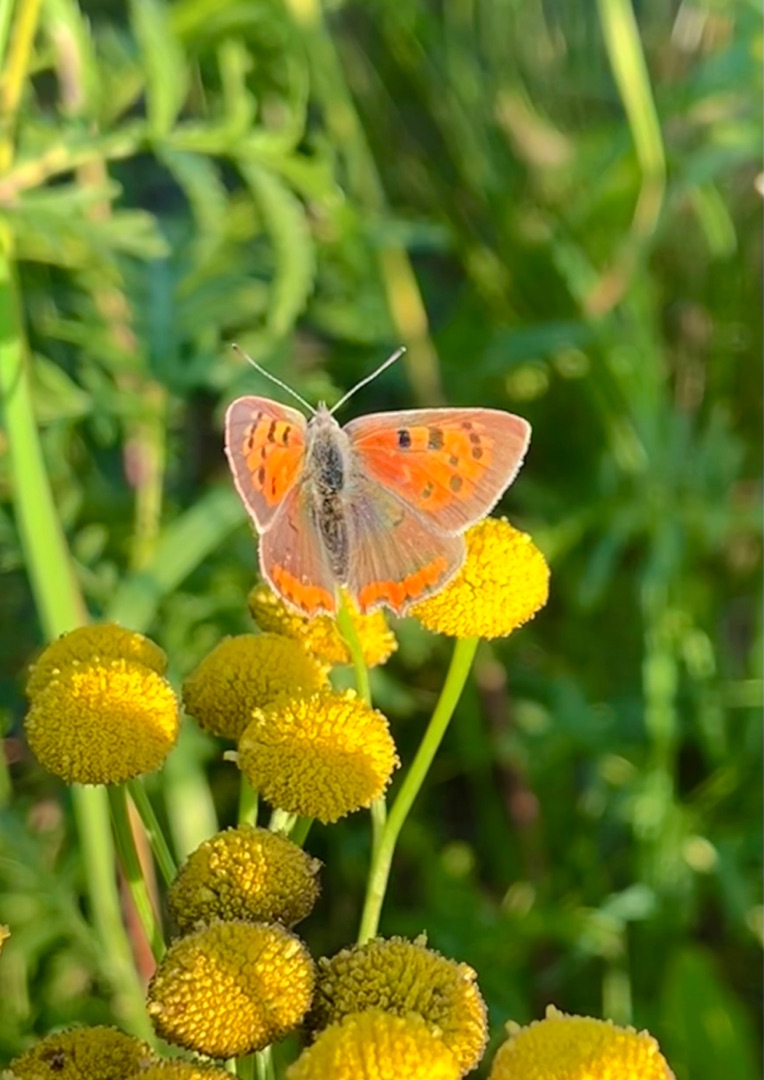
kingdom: Animalia
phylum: Arthropoda
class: Insecta
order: Lepidoptera
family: Lycaenidae
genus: Lycaena
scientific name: Lycaena phlaeas
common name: Lille ildfugl
